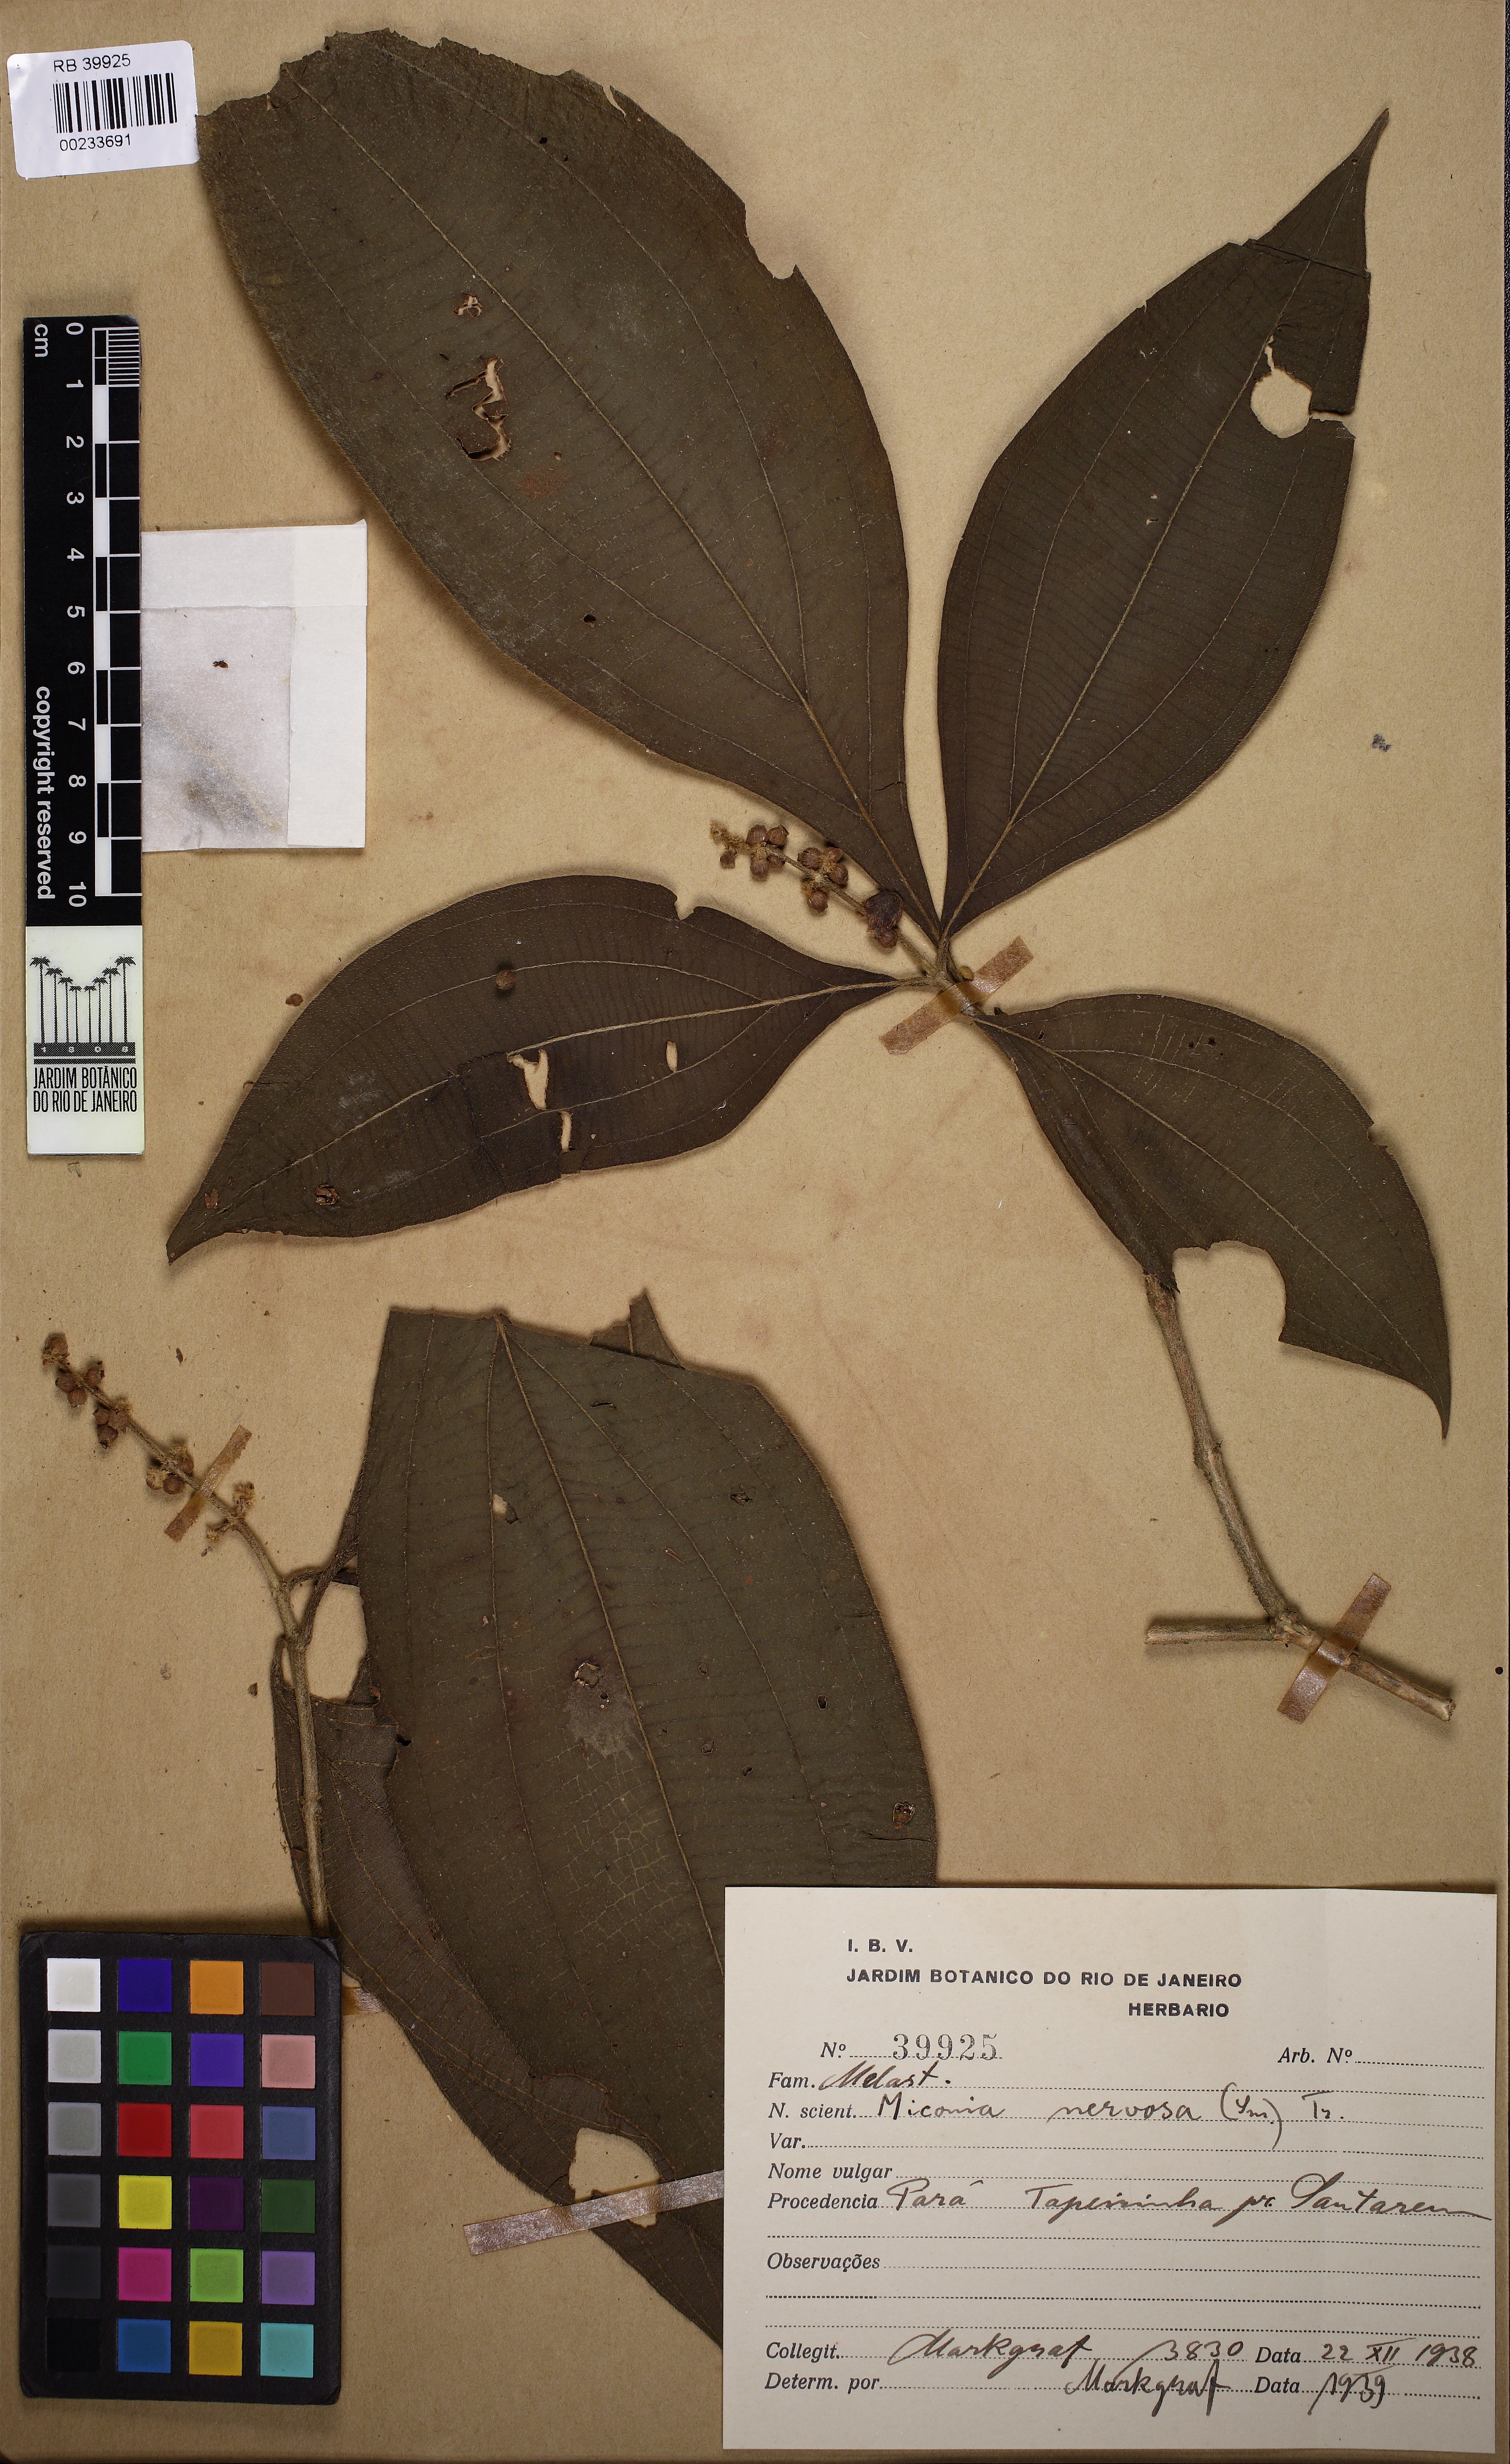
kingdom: Plantae
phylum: Tracheophyta
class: Magnoliopsida
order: Myrtales
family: Melastomataceae
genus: Miconia
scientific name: Miconia nervosa
